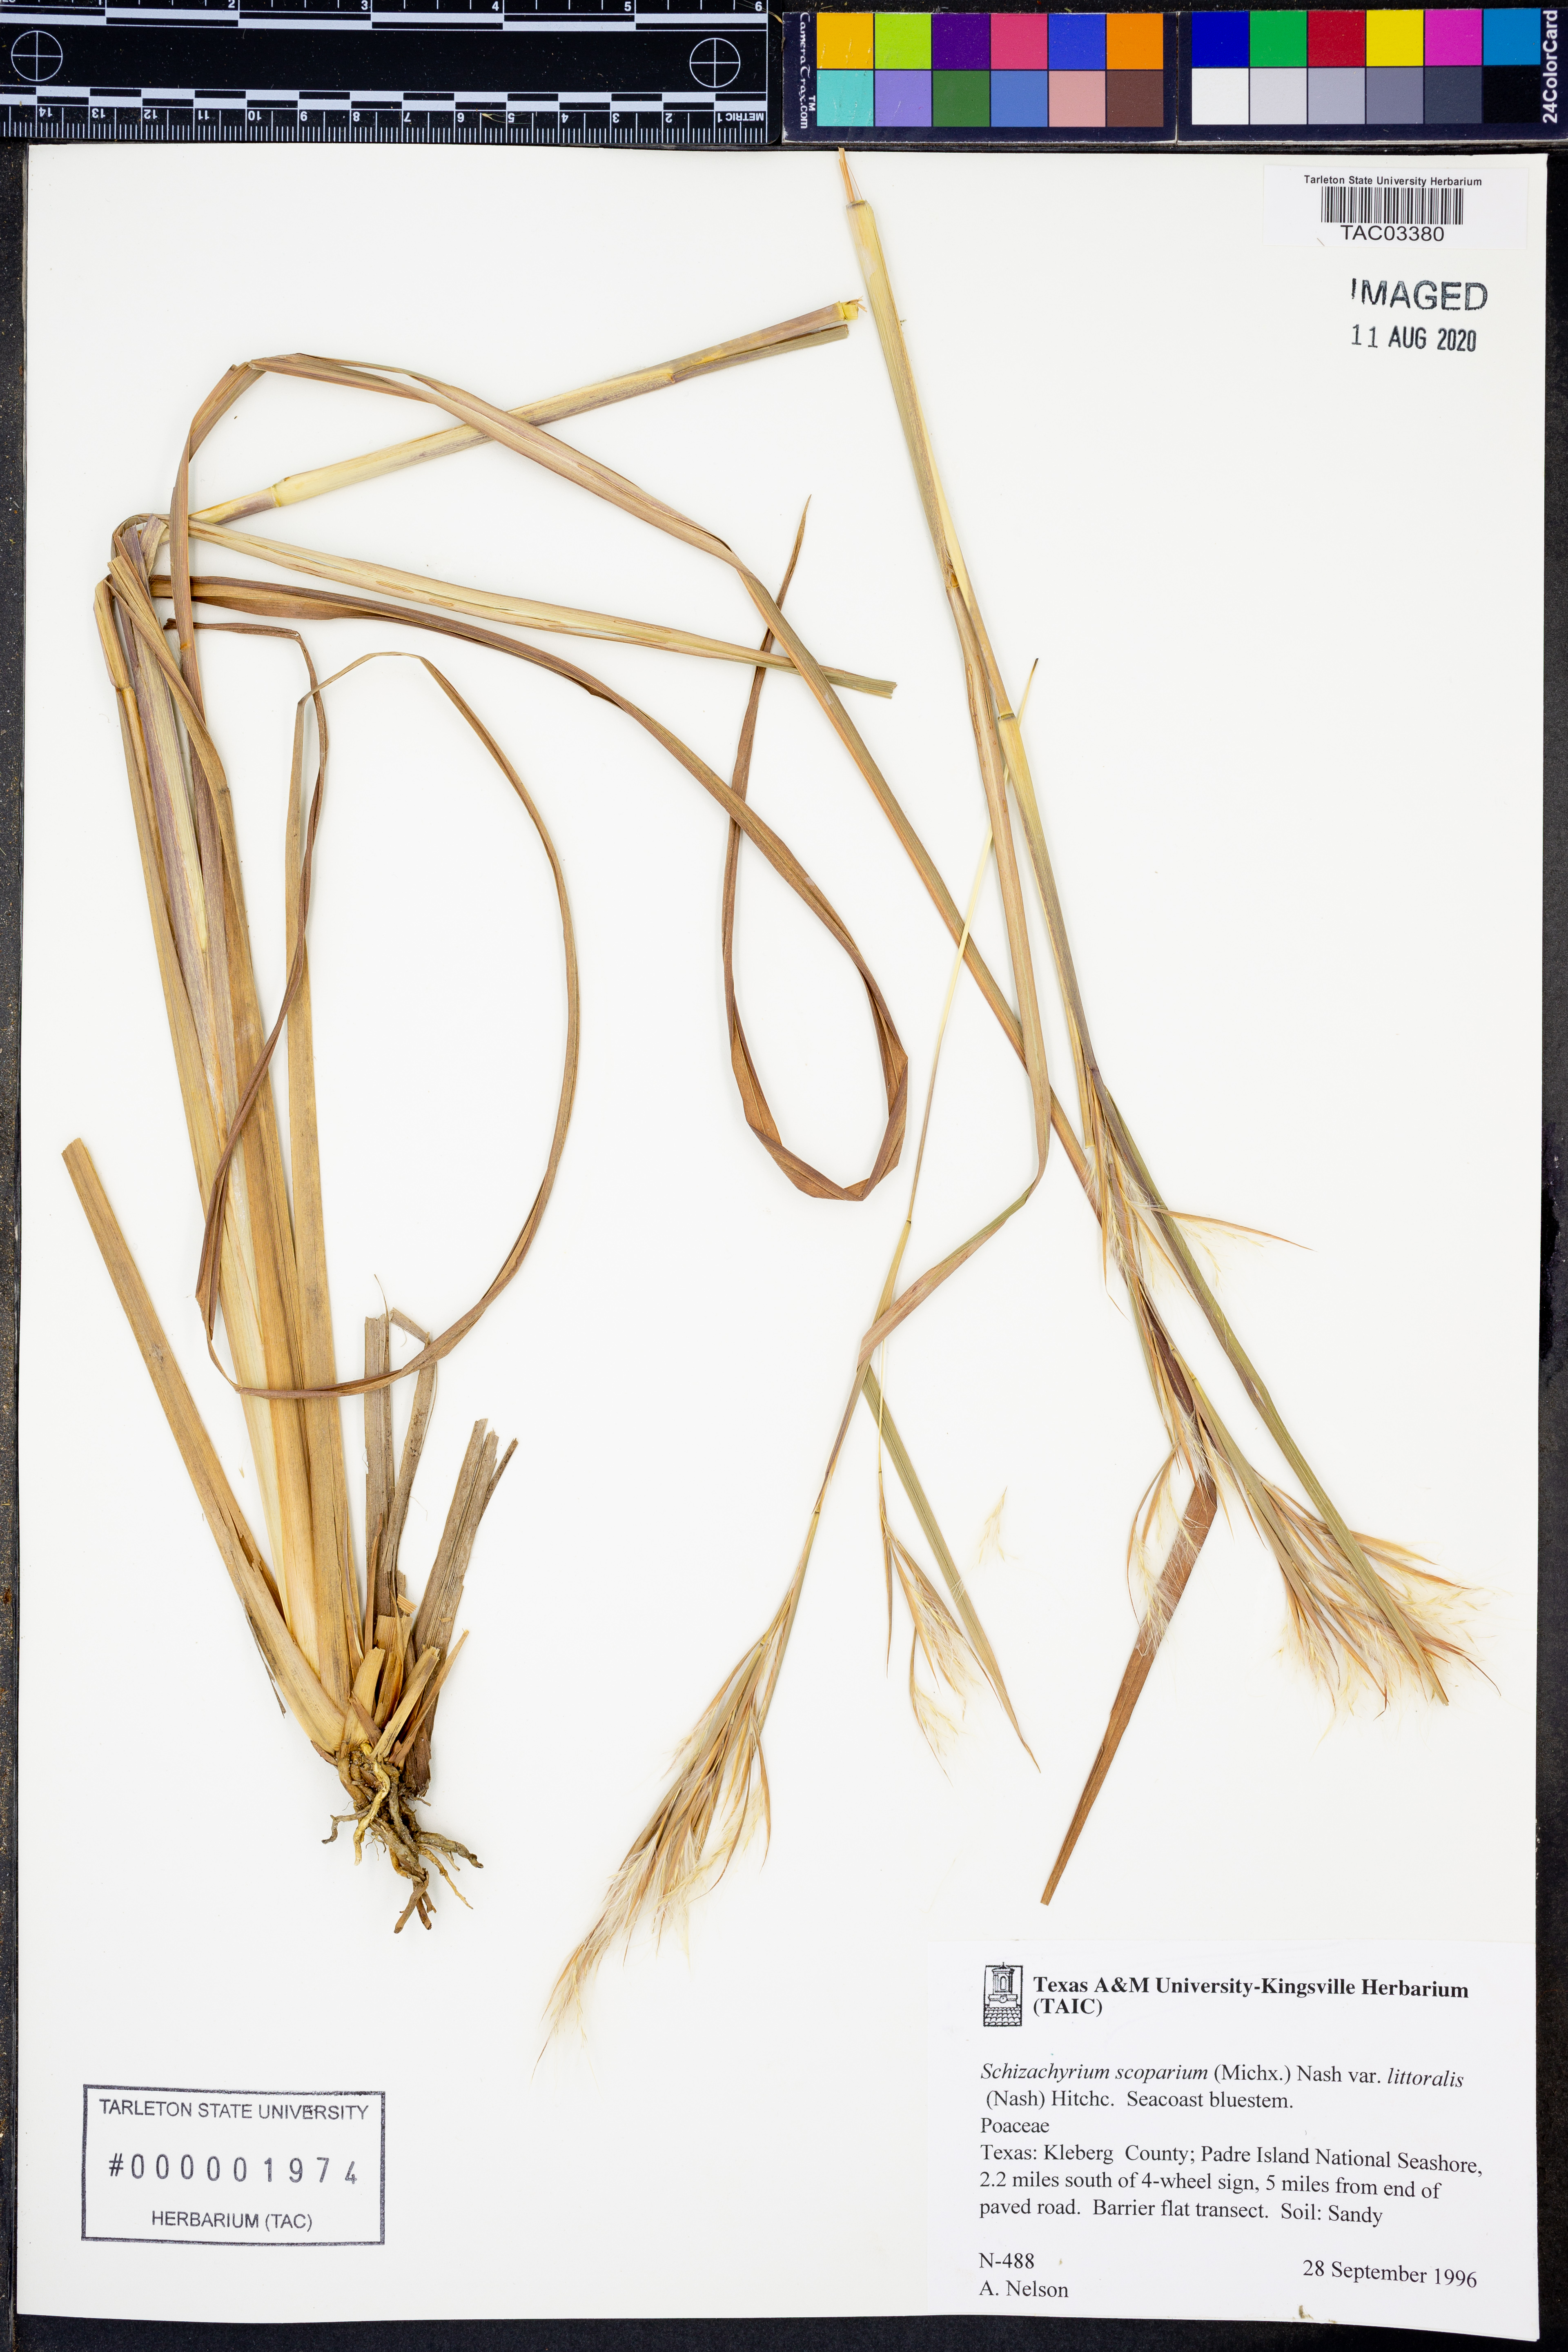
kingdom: Plantae
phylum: Tracheophyta
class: Liliopsida
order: Poales
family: Poaceae
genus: Schizachyrium
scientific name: Schizachyrium scoparium
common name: Little bluestem
